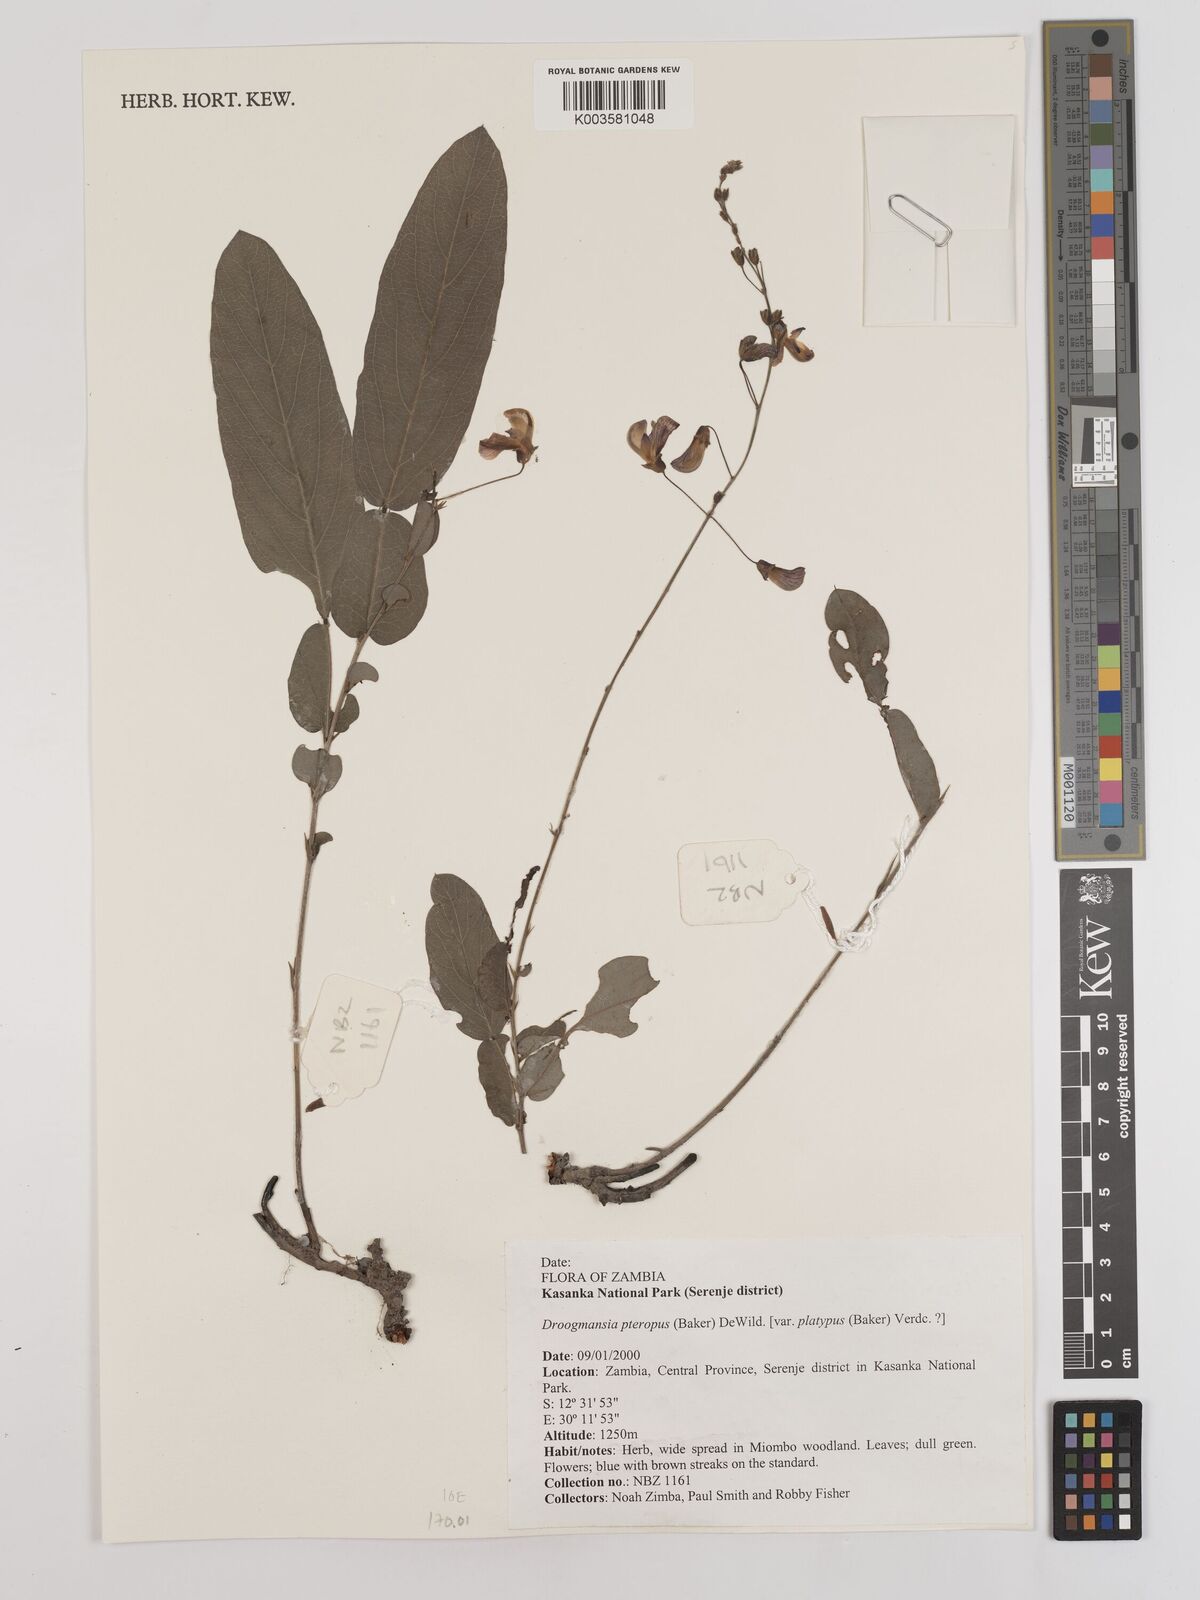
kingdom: Plantae
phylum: Tracheophyta
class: Magnoliopsida
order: Fabales
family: Fabaceae
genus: Droogmansia
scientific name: Droogmansia pteropus
